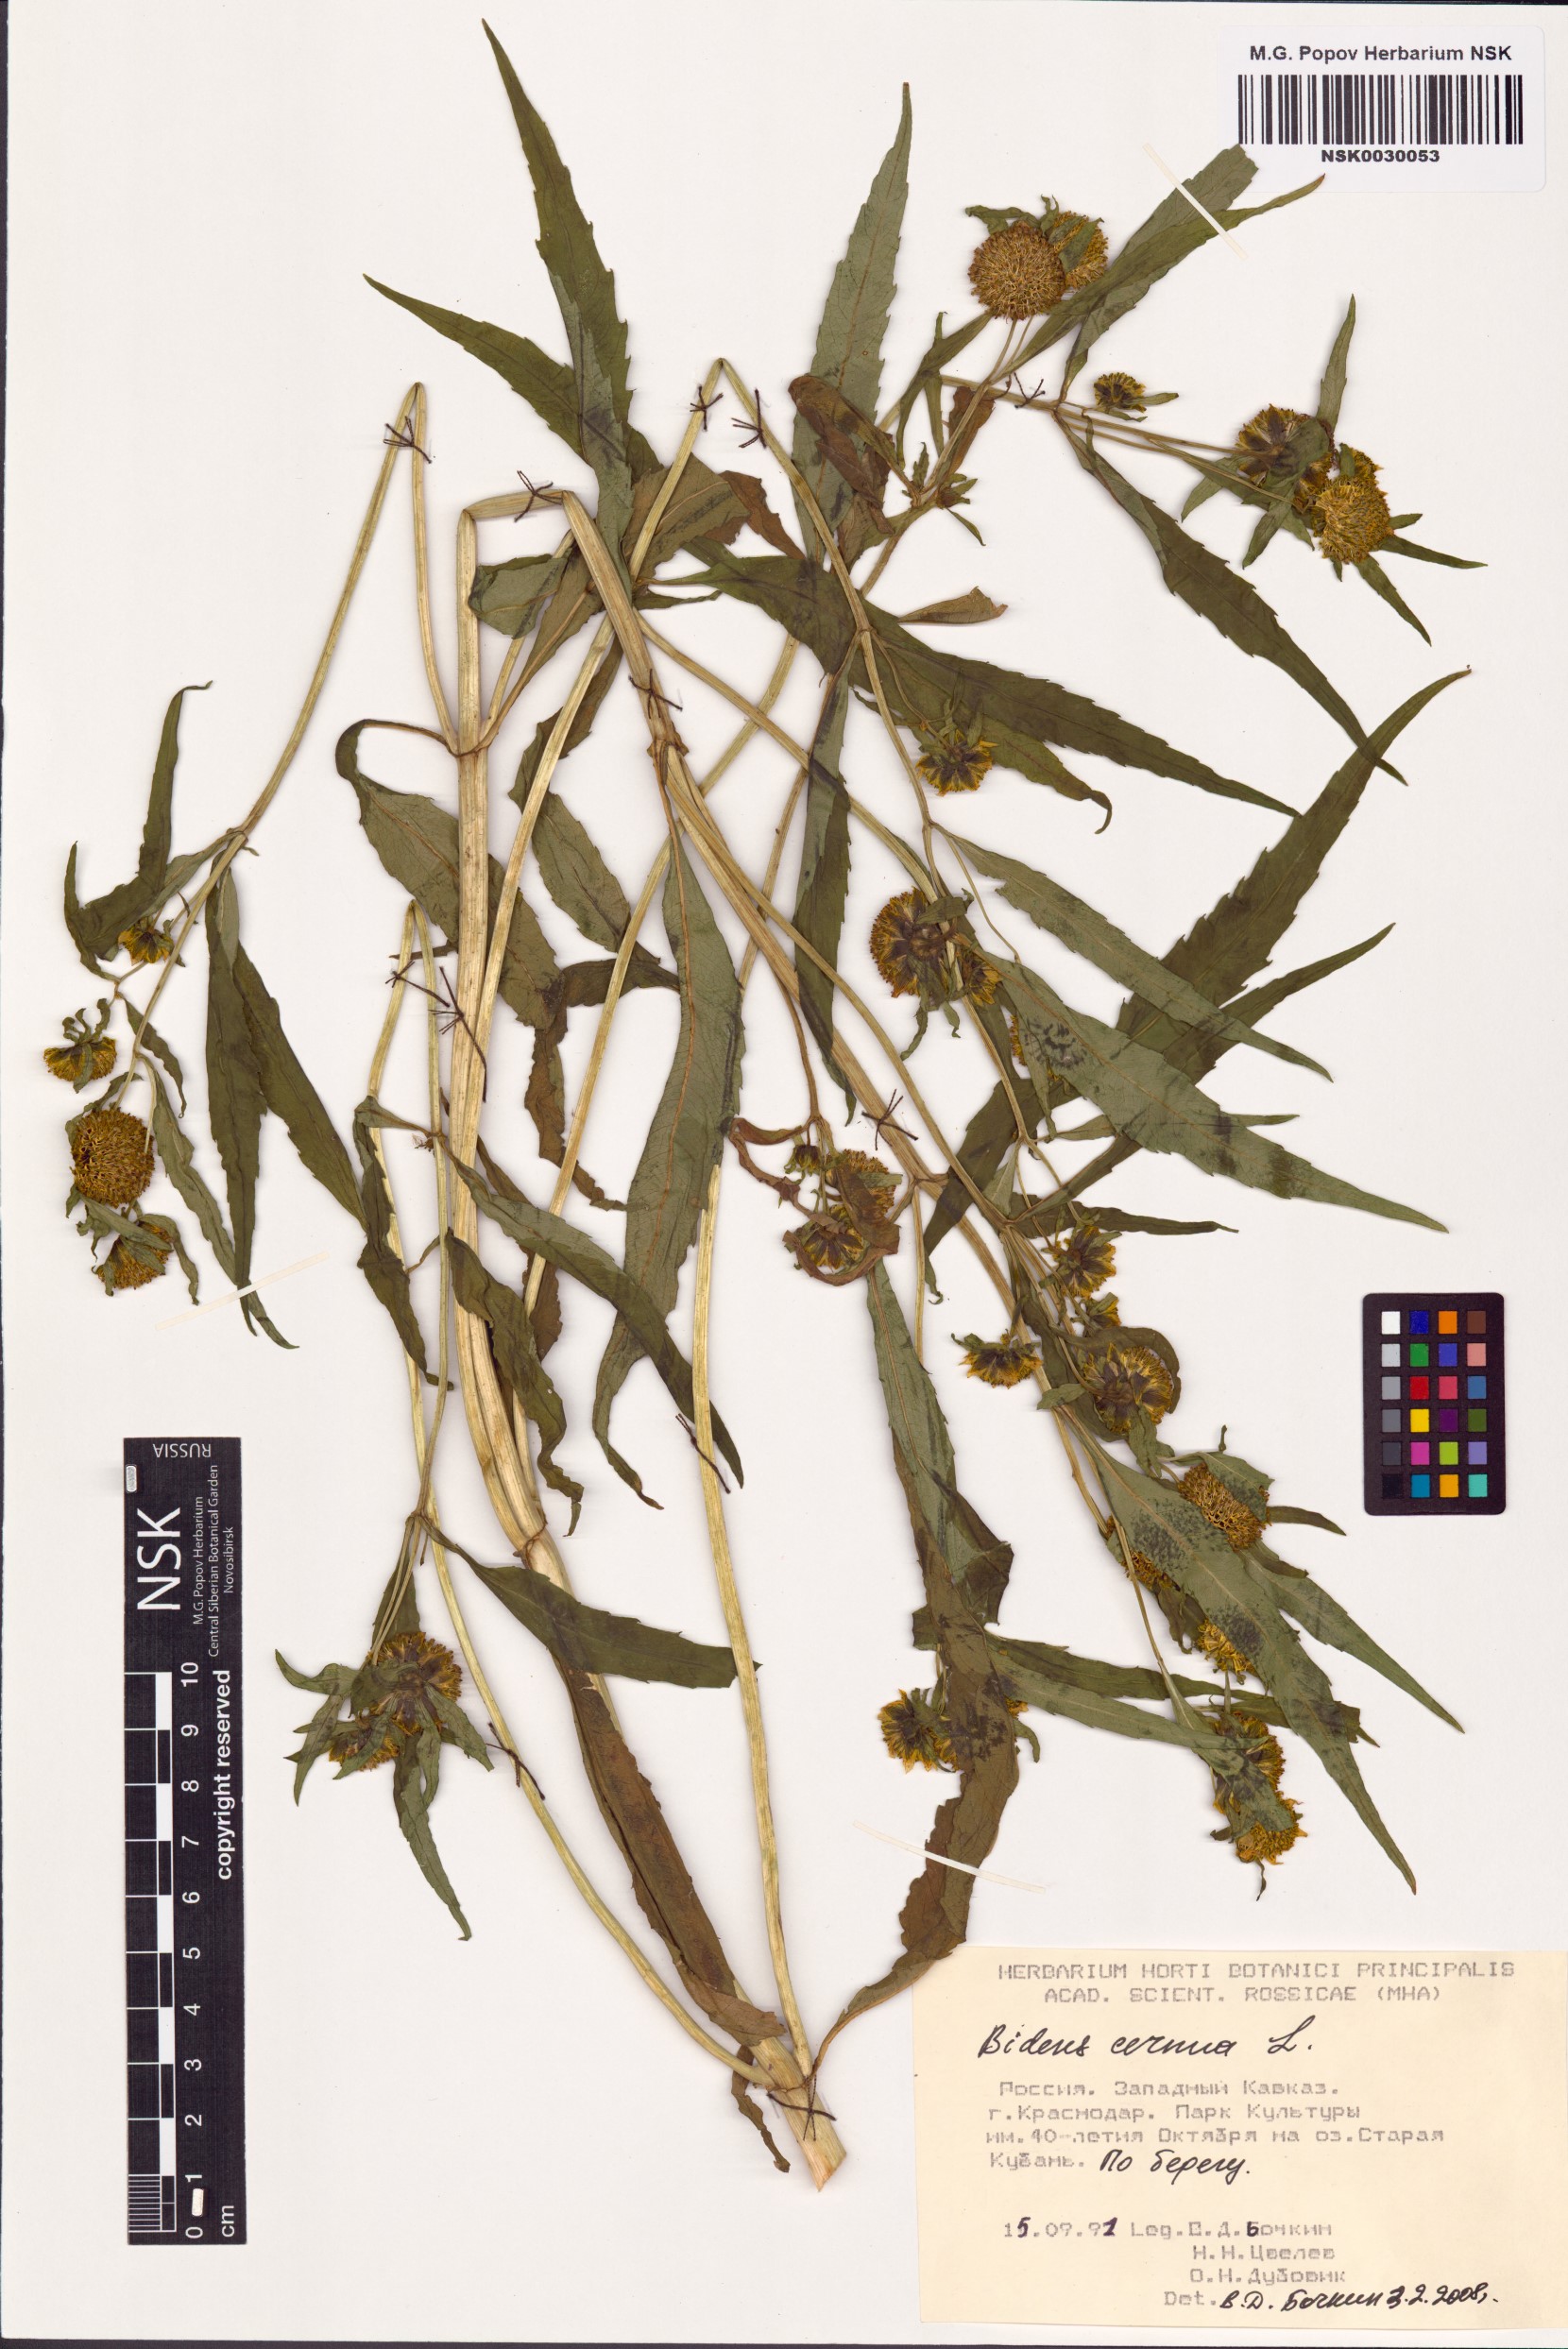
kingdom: Plantae
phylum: Tracheophyta
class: Magnoliopsida
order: Asterales
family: Asteraceae
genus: Bidens
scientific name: Bidens cernua
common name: Nodding bur-marigold
